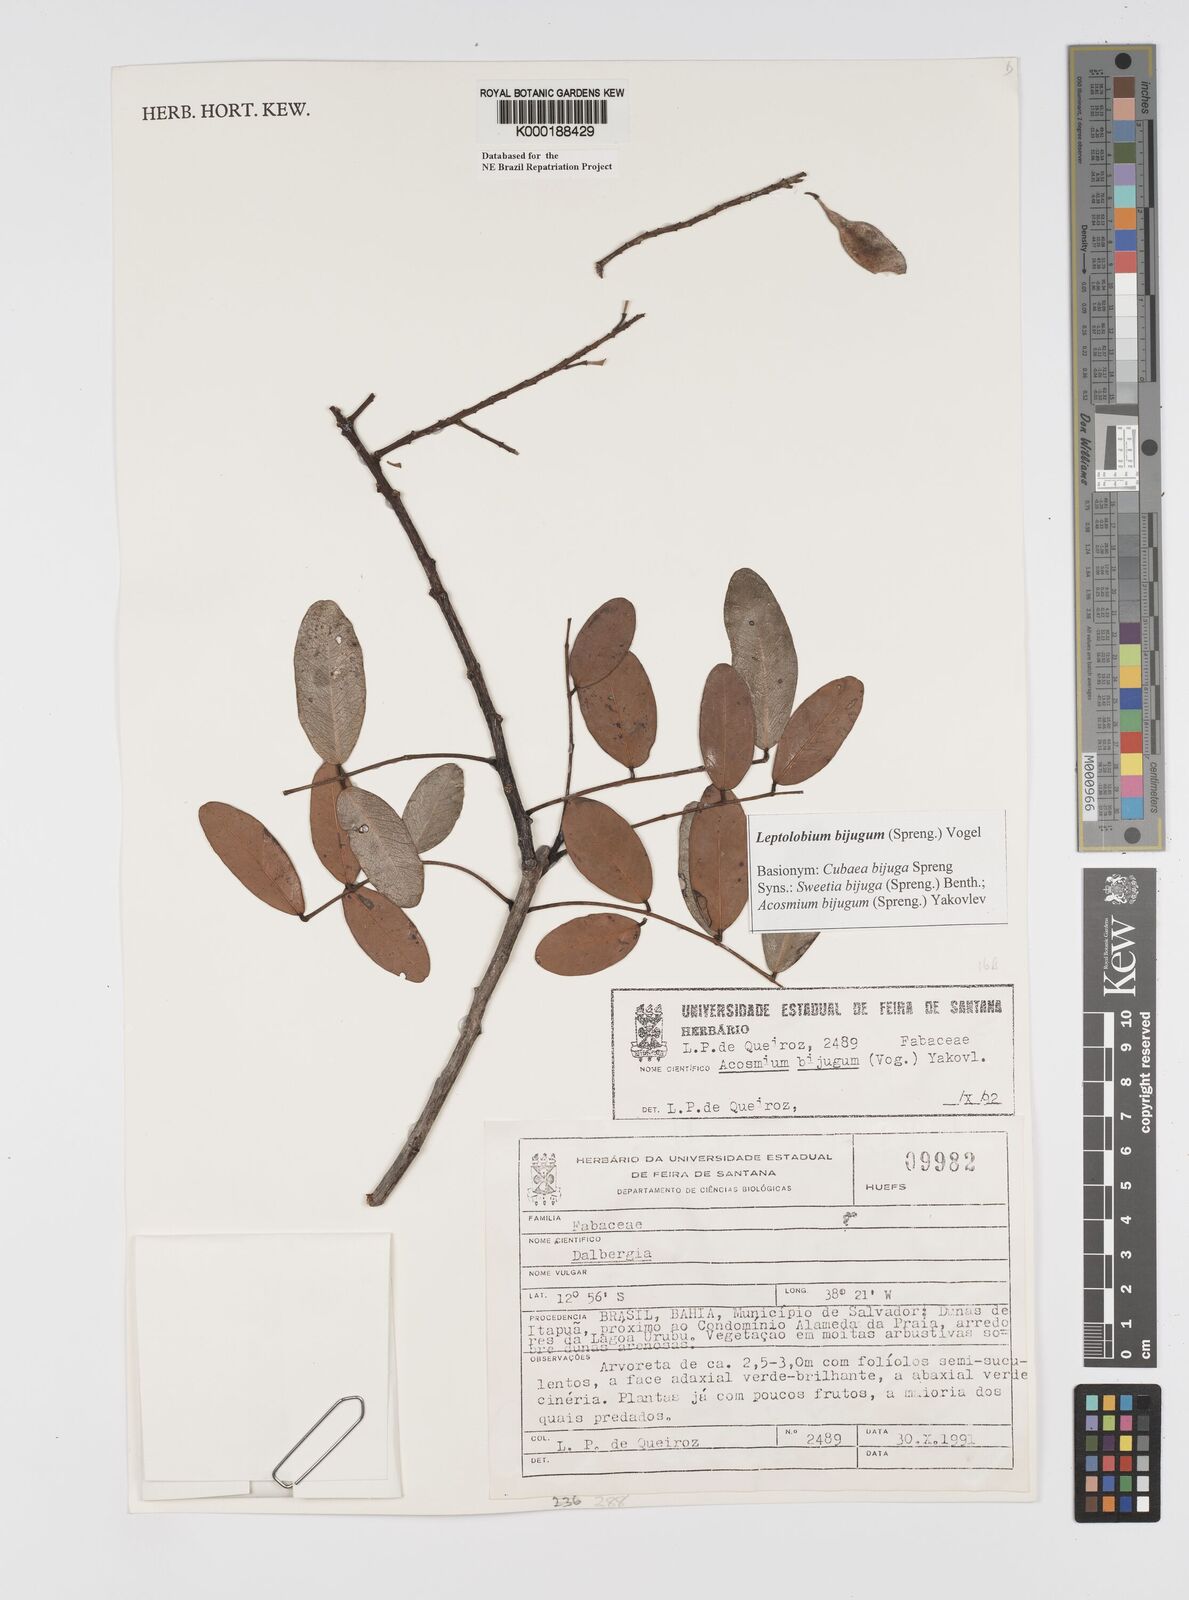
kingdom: Plantae
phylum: Tracheophyta
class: Magnoliopsida
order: Fabales
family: Fabaceae
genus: Leptolobium
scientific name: Leptolobium bijugum
